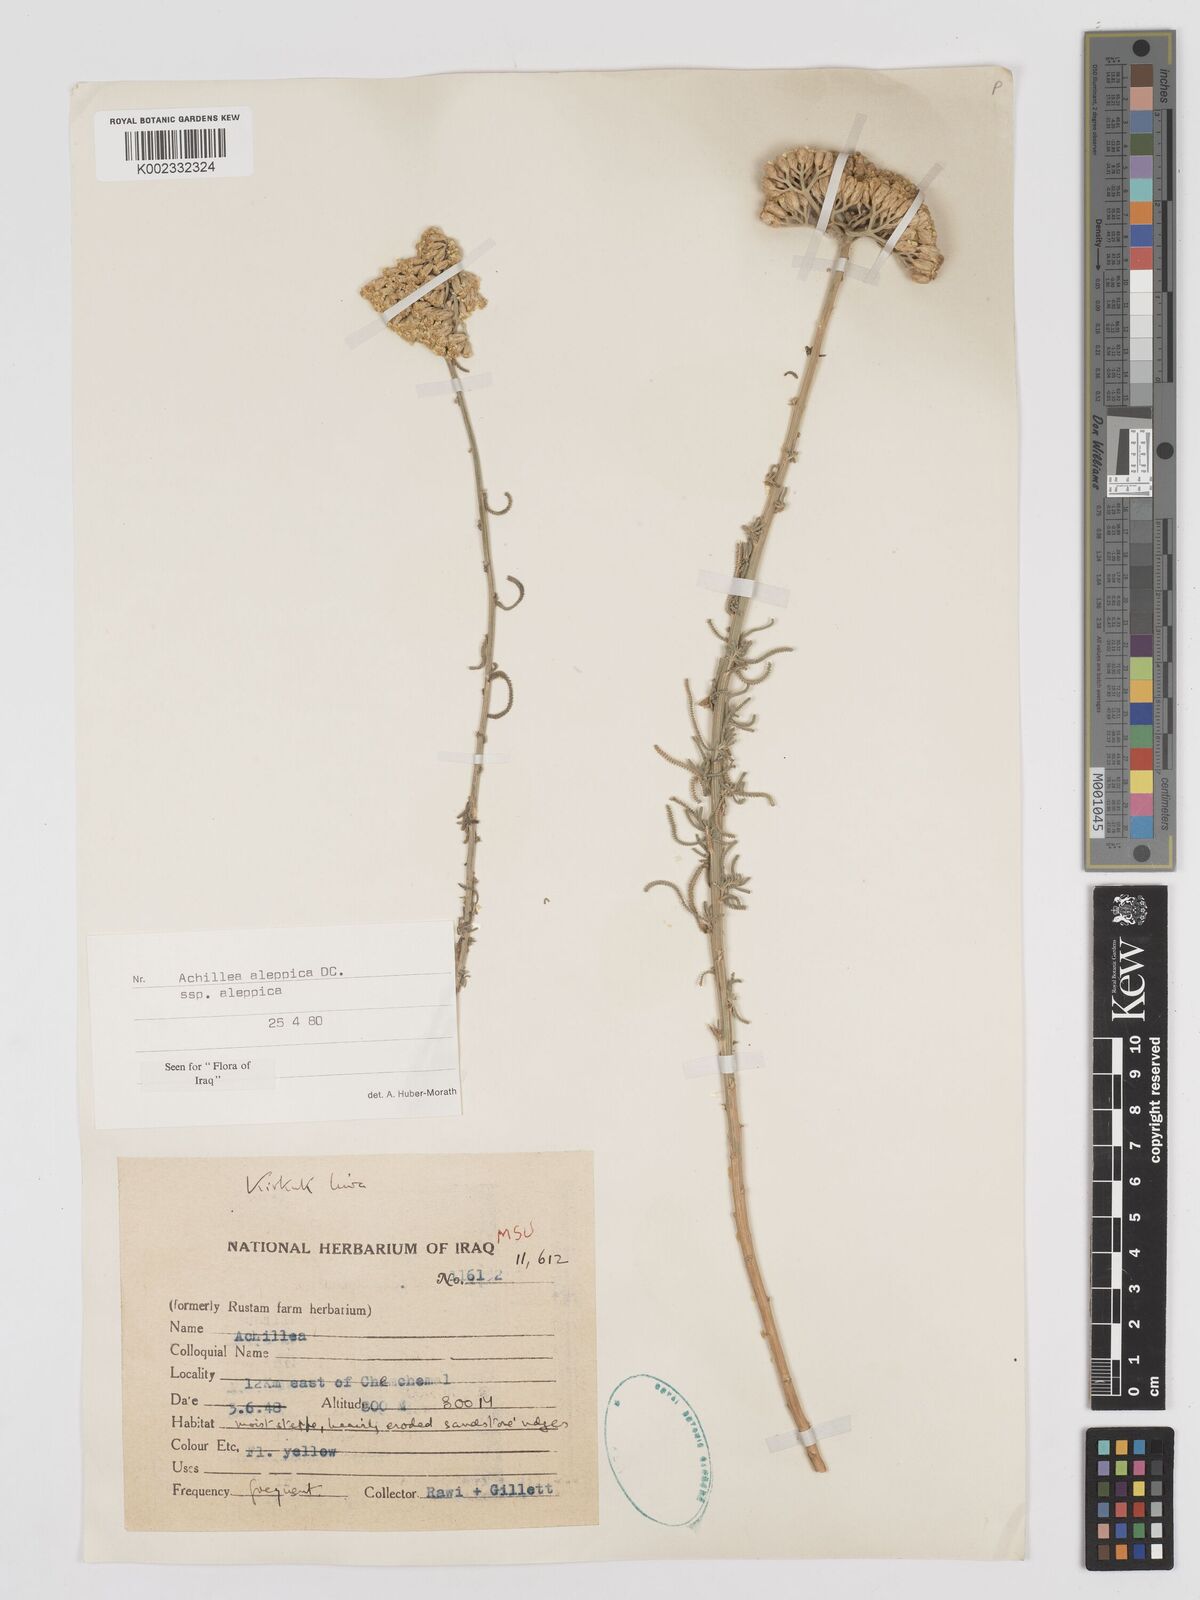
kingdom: Plantae
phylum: Tracheophyta
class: Magnoliopsida
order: Asterales
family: Asteraceae
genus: Achillea
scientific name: Achillea aleppica
